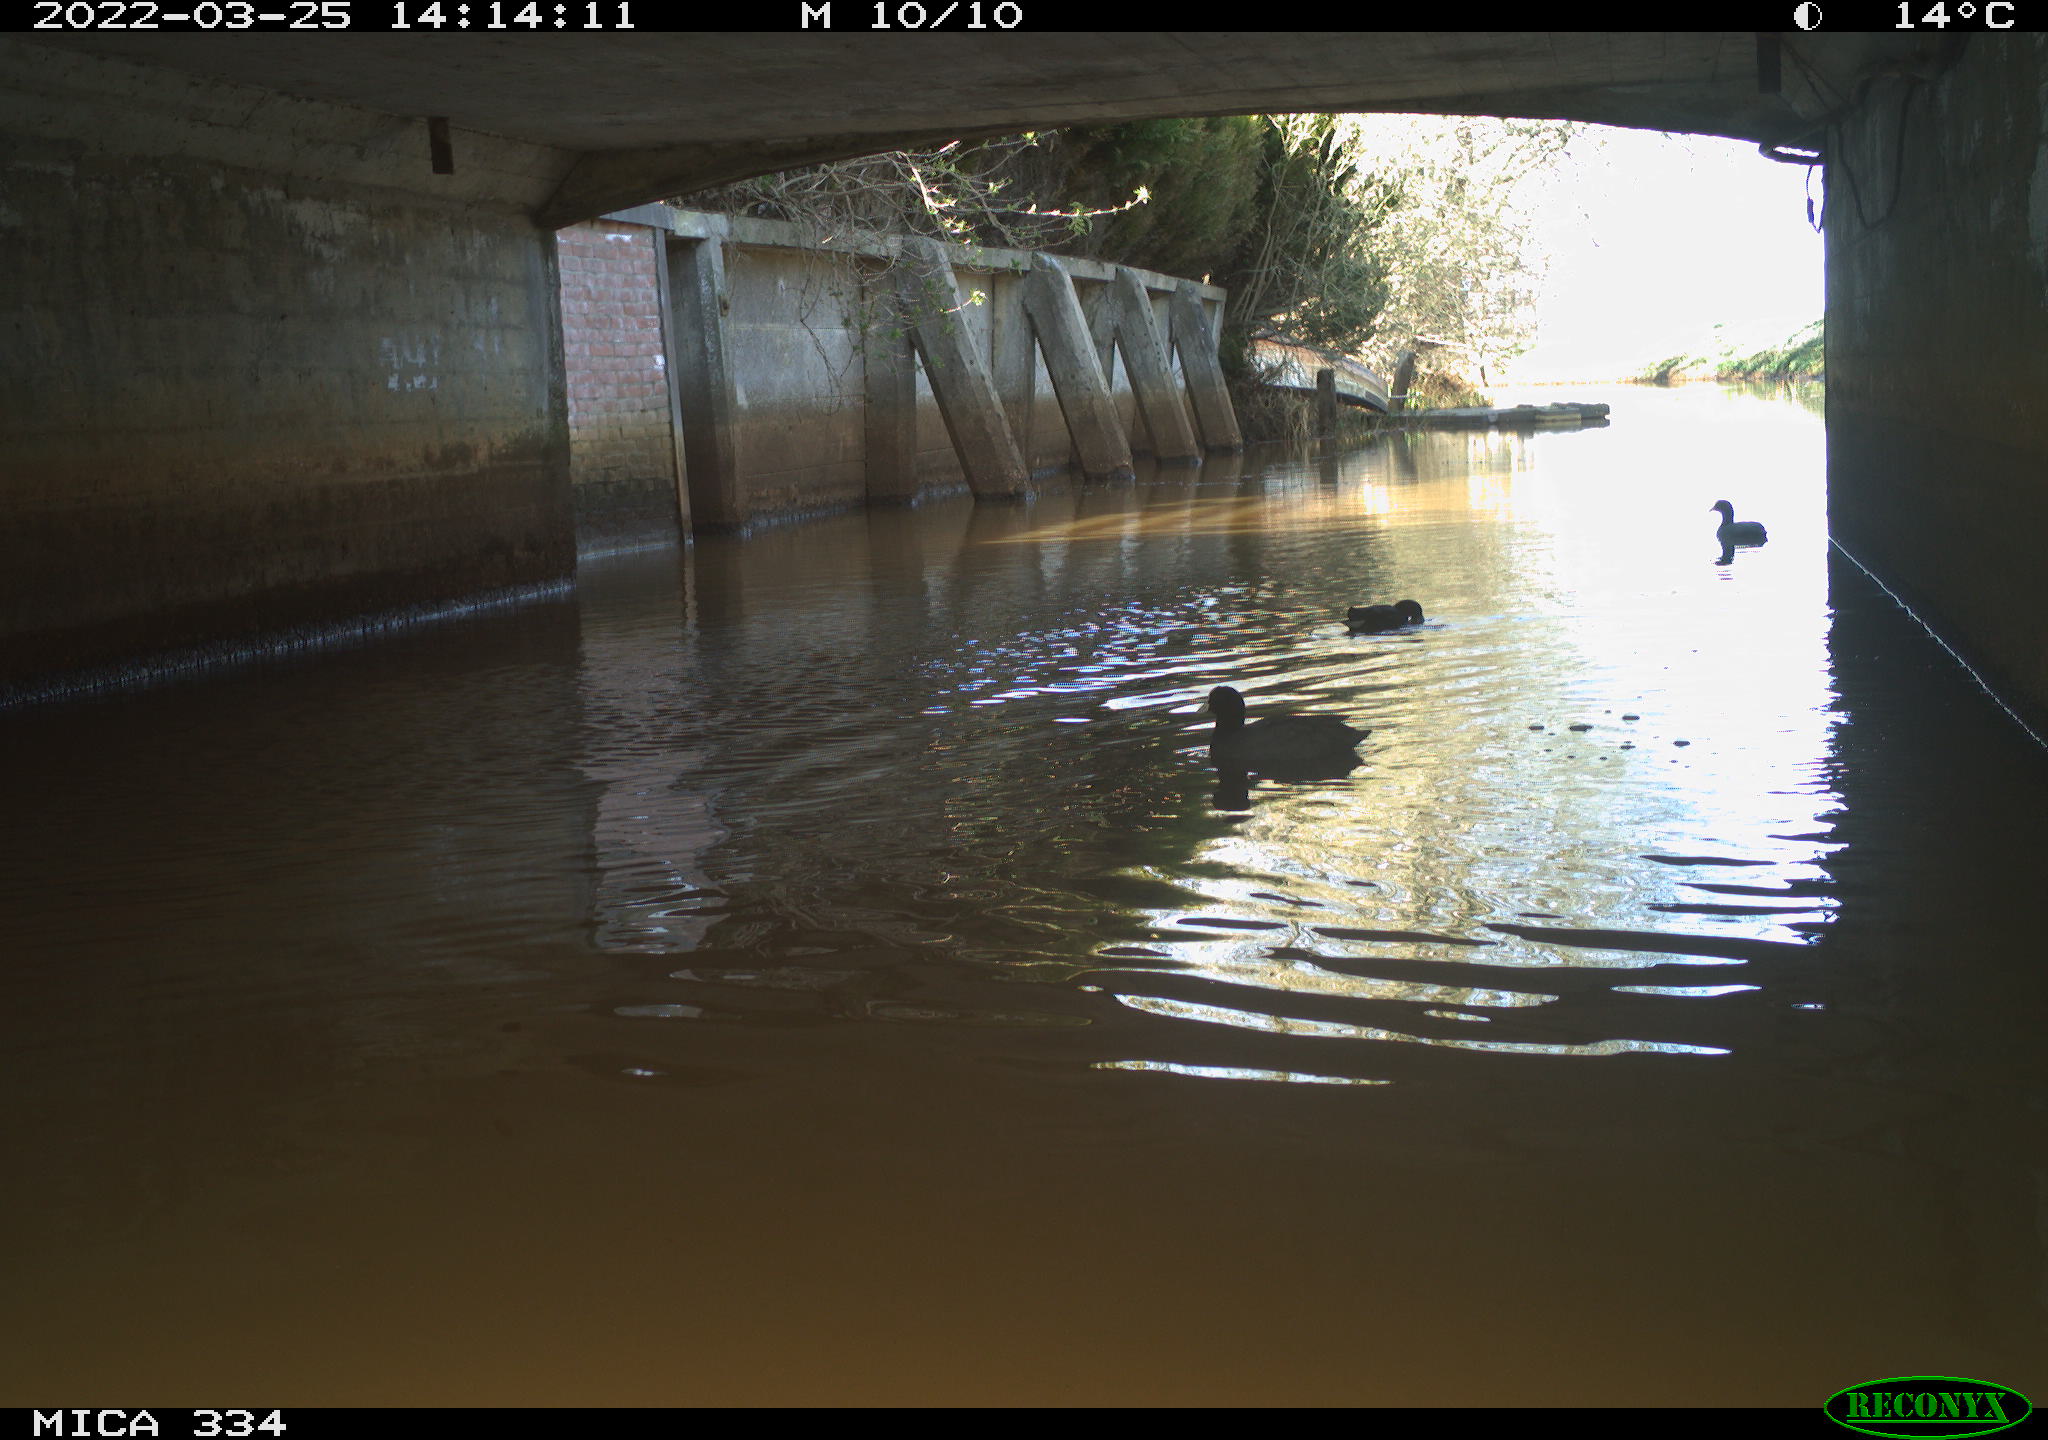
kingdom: Animalia
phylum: Chordata
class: Aves
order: Gruiformes
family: Rallidae
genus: Gallinula
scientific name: Gallinula chloropus
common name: Common moorhen
